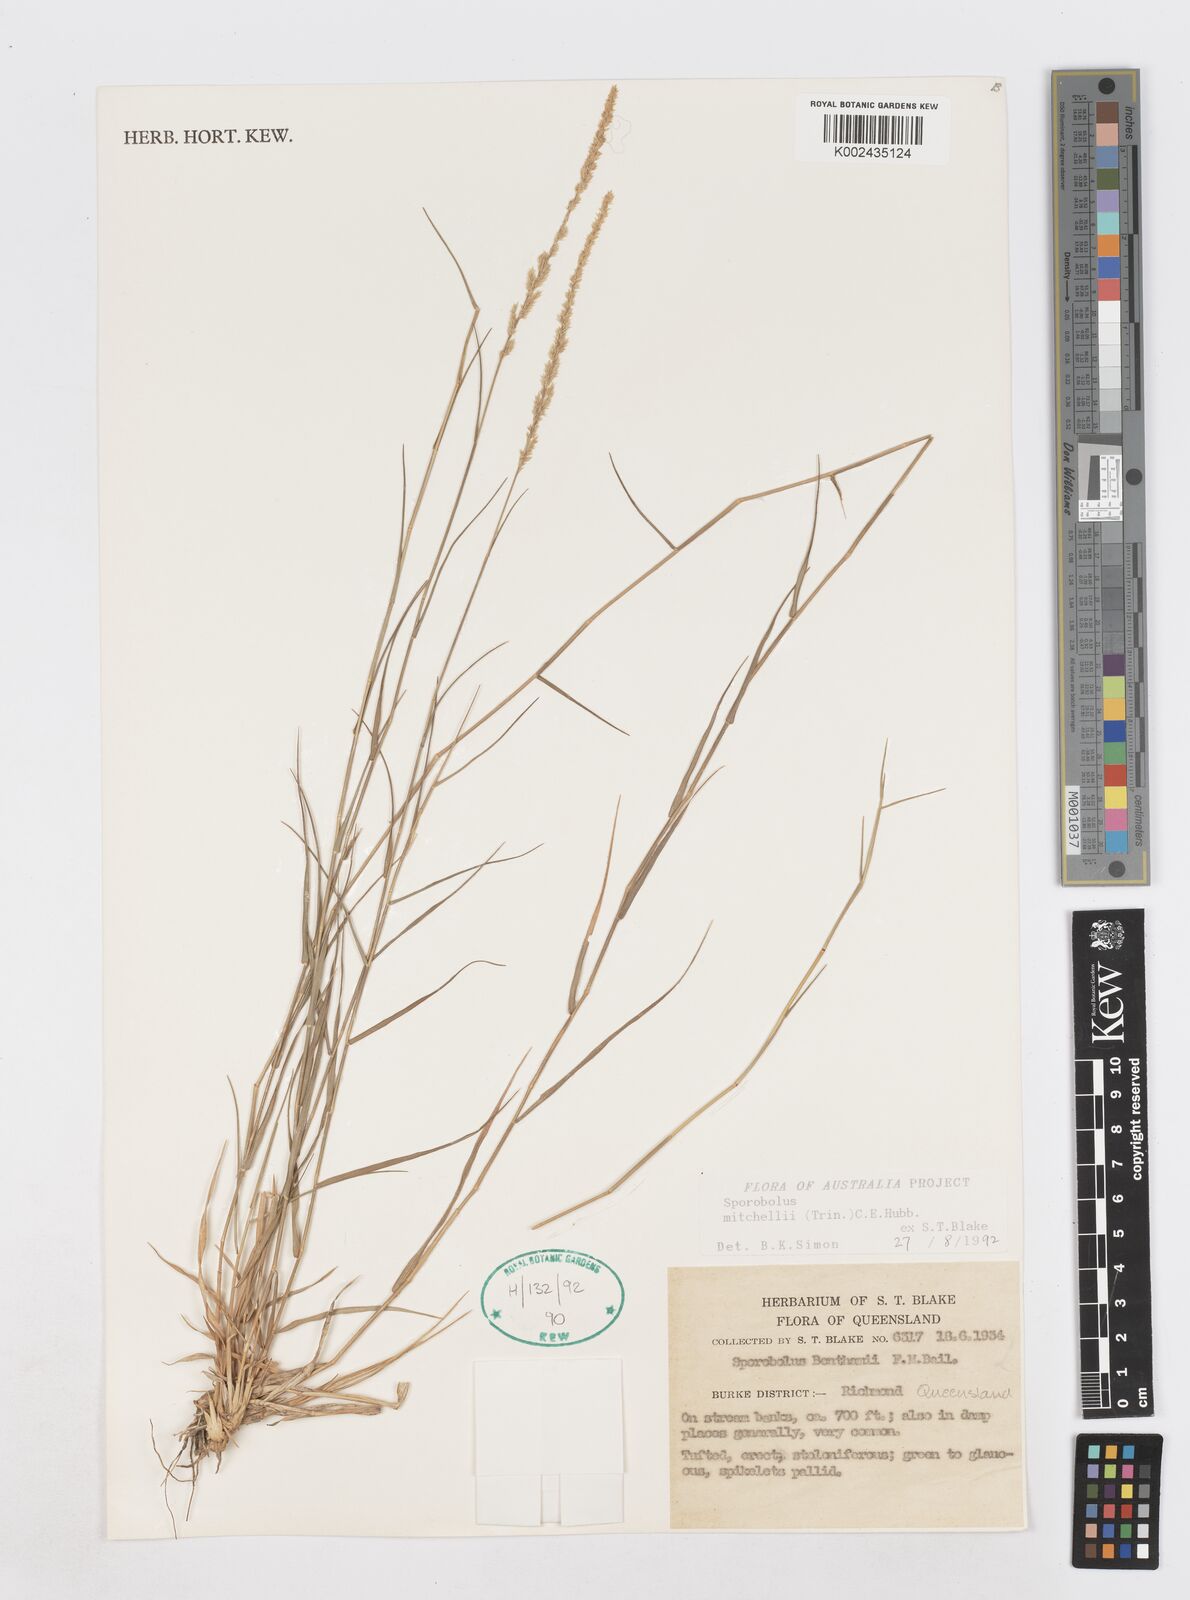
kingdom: Plantae
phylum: Tracheophyta
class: Liliopsida
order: Poales
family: Poaceae
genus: Sporobolus
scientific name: Sporobolus mitchellii
